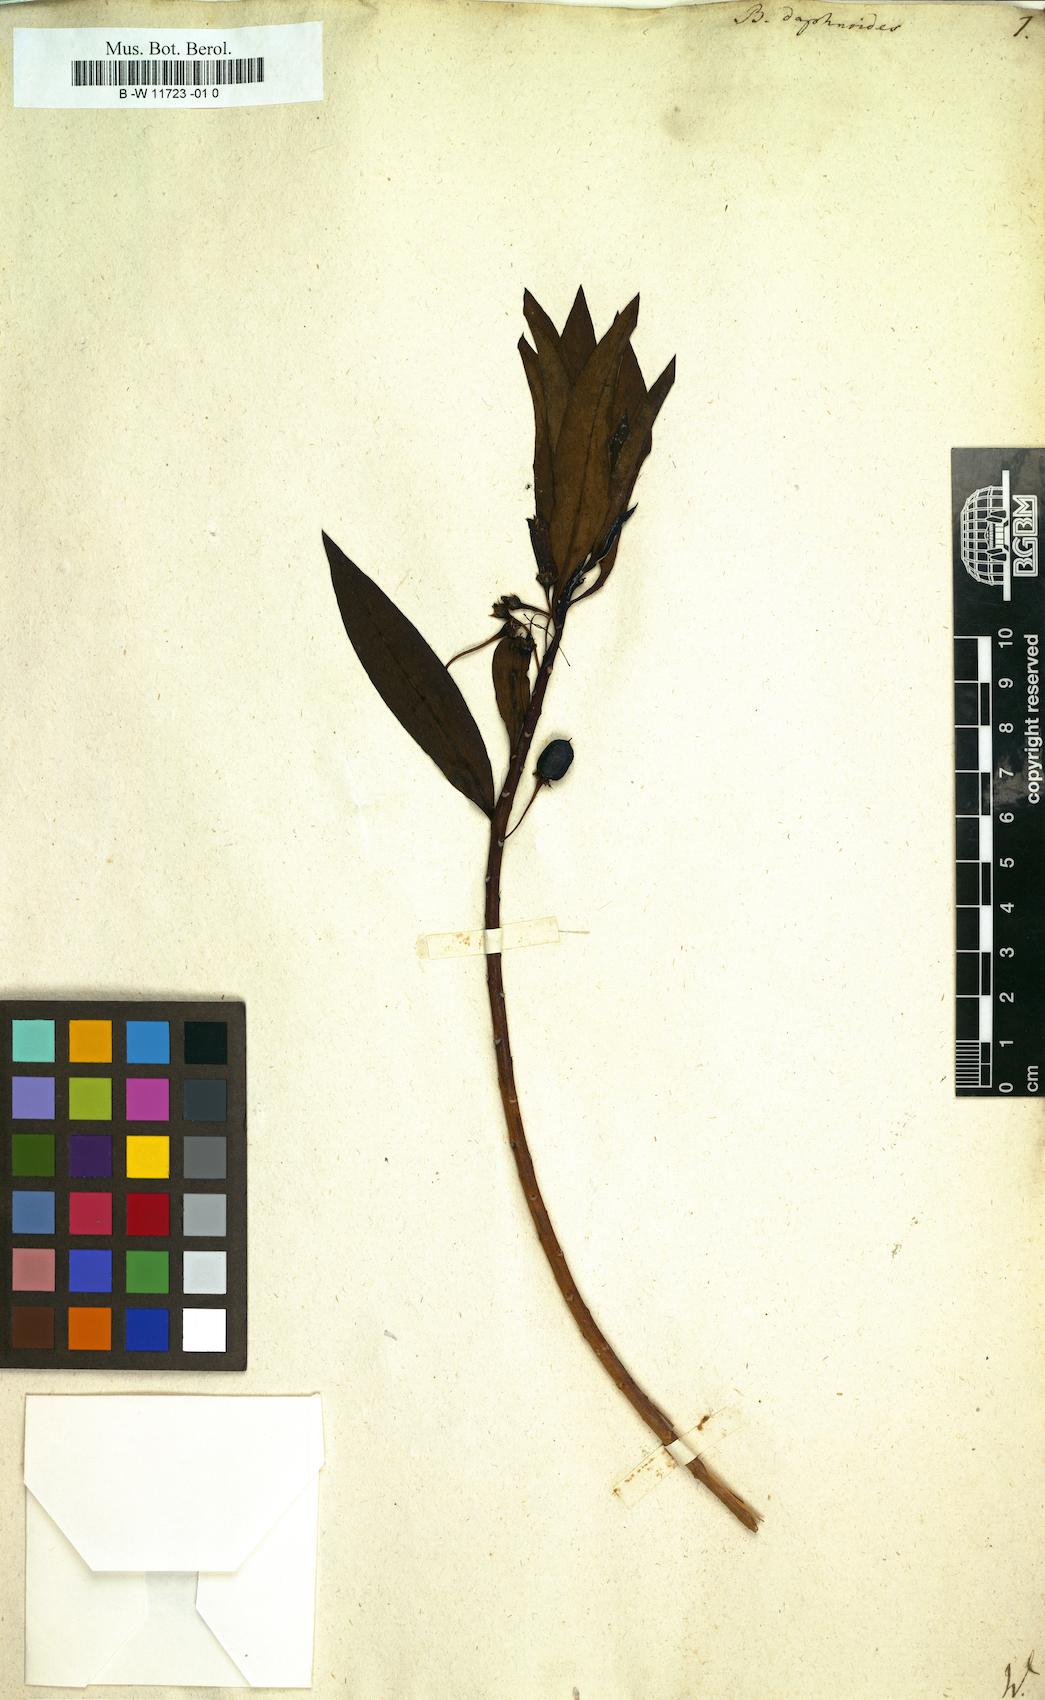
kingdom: Plantae
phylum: Tracheophyta
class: Magnoliopsida
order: Lamiales
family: Scrophulariaceae
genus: Bontia
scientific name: Bontia daphnoides
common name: Wild olive
